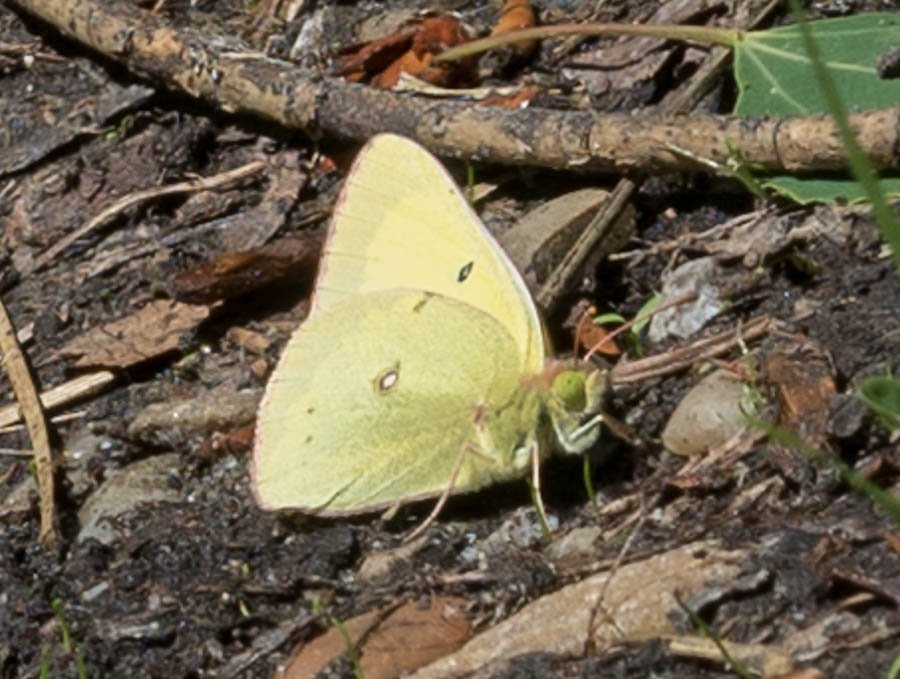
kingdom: Animalia
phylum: Arthropoda
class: Insecta
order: Lepidoptera
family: Pieridae
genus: Colias
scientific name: Colias philodice
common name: Clouded Sulphur
